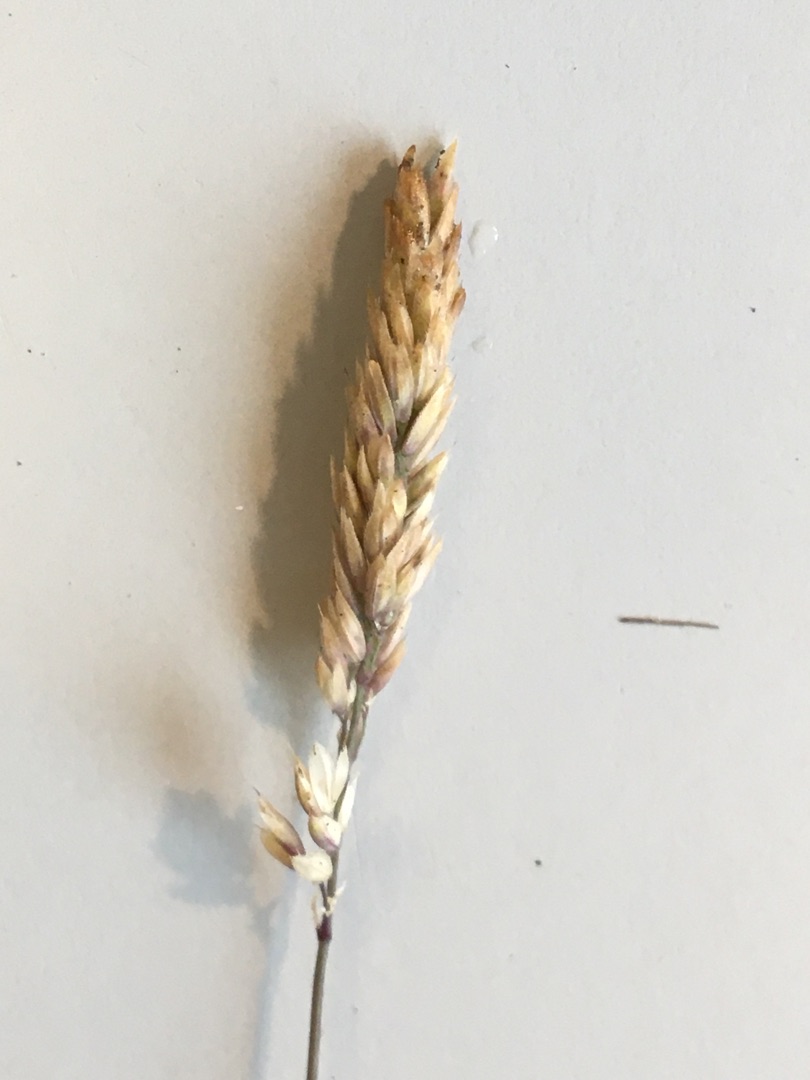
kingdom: Plantae
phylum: Tracheophyta
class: Liliopsida
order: Poales
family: Poaceae
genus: Holcus
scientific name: Holcus lanatus
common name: Fløjlsgræs
